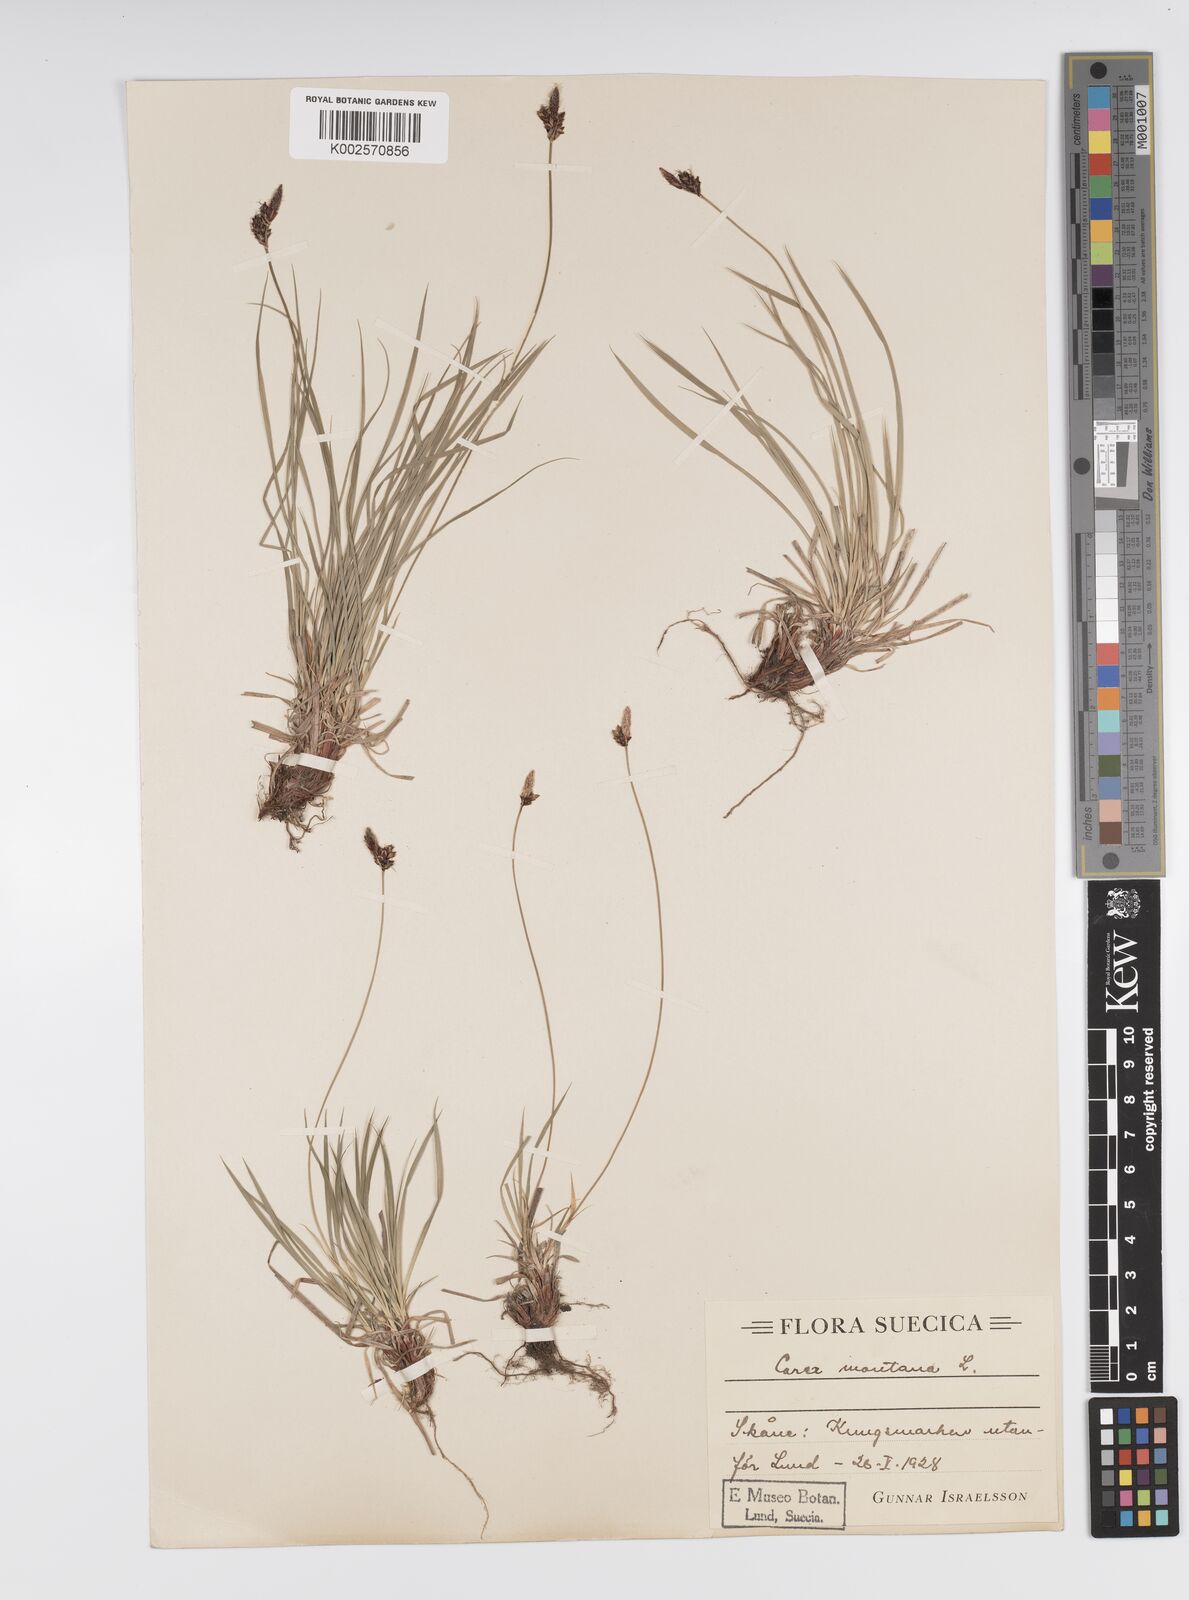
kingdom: Plantae
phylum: Tracheophyta
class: Liliopsida
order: Poales
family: Cyperaceae
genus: Carex
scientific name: Carex montana
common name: Soft-leaved sedge
